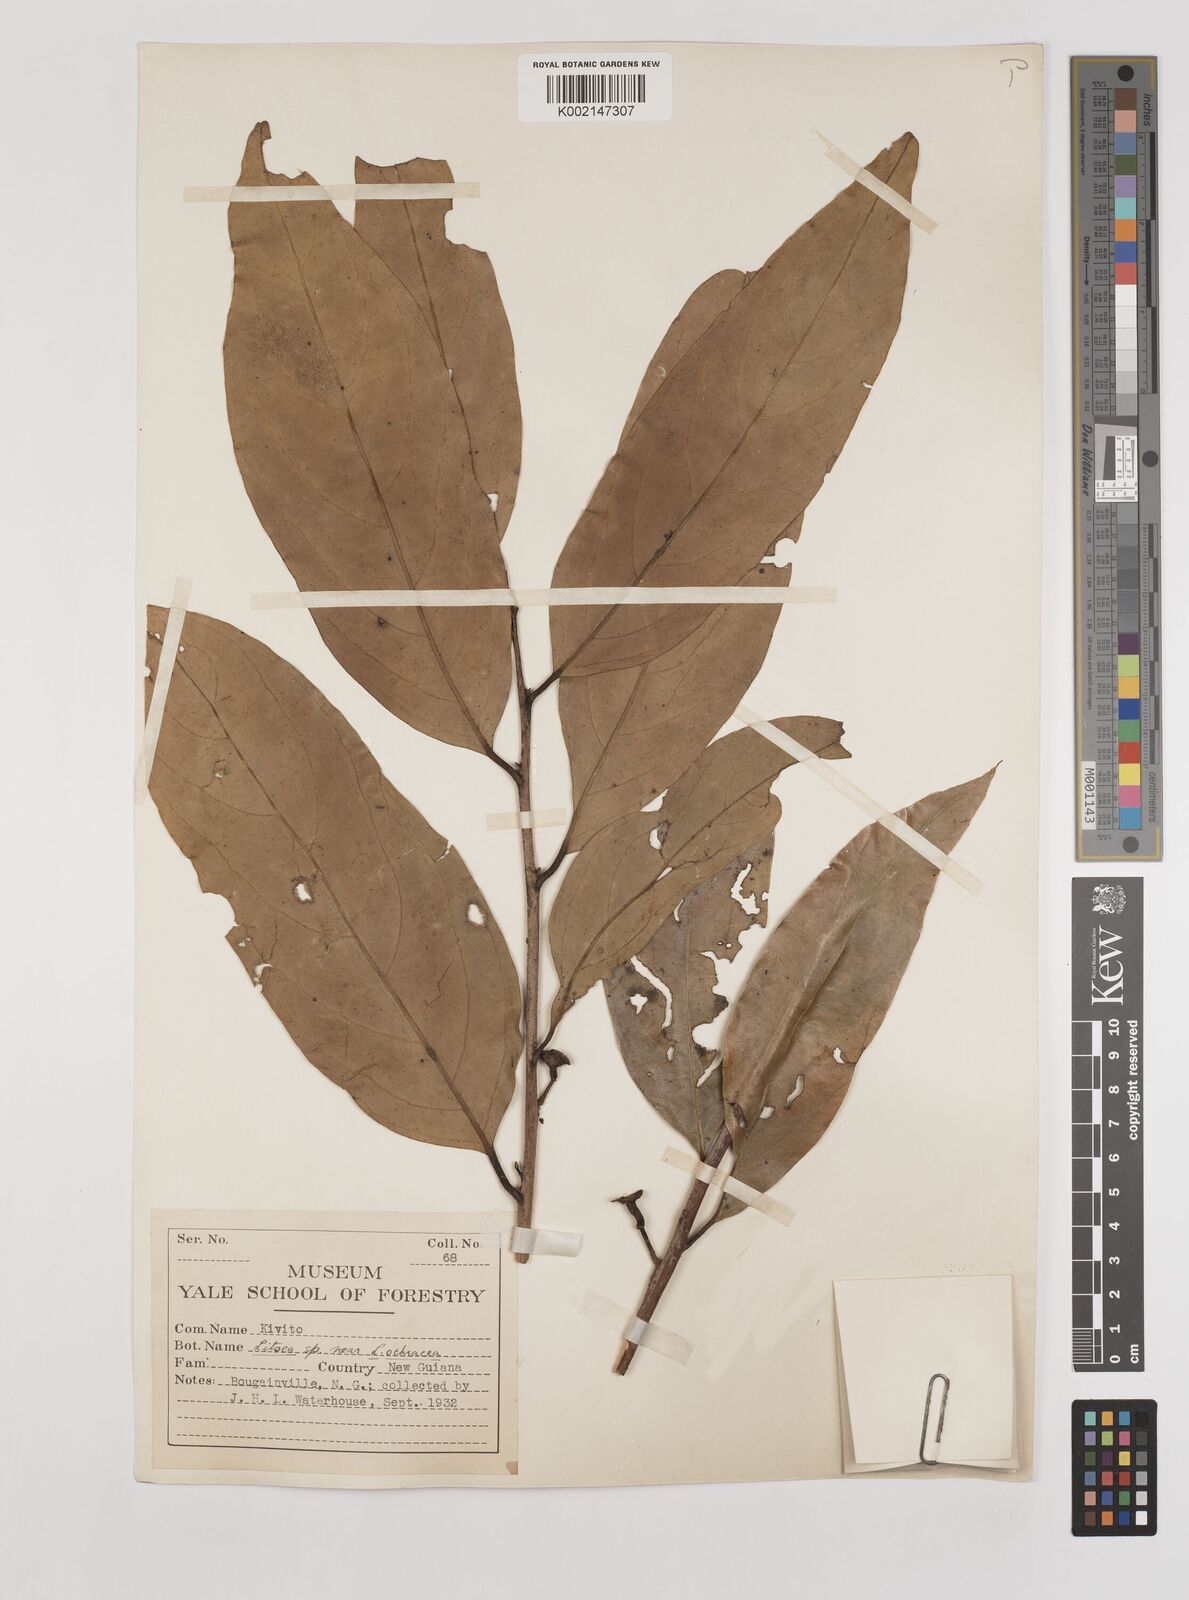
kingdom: Plantae
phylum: Tracheophyta
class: Magnoliopsida
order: Laurales
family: Lauraceae
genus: Litsea
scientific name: Litsea timoriana
